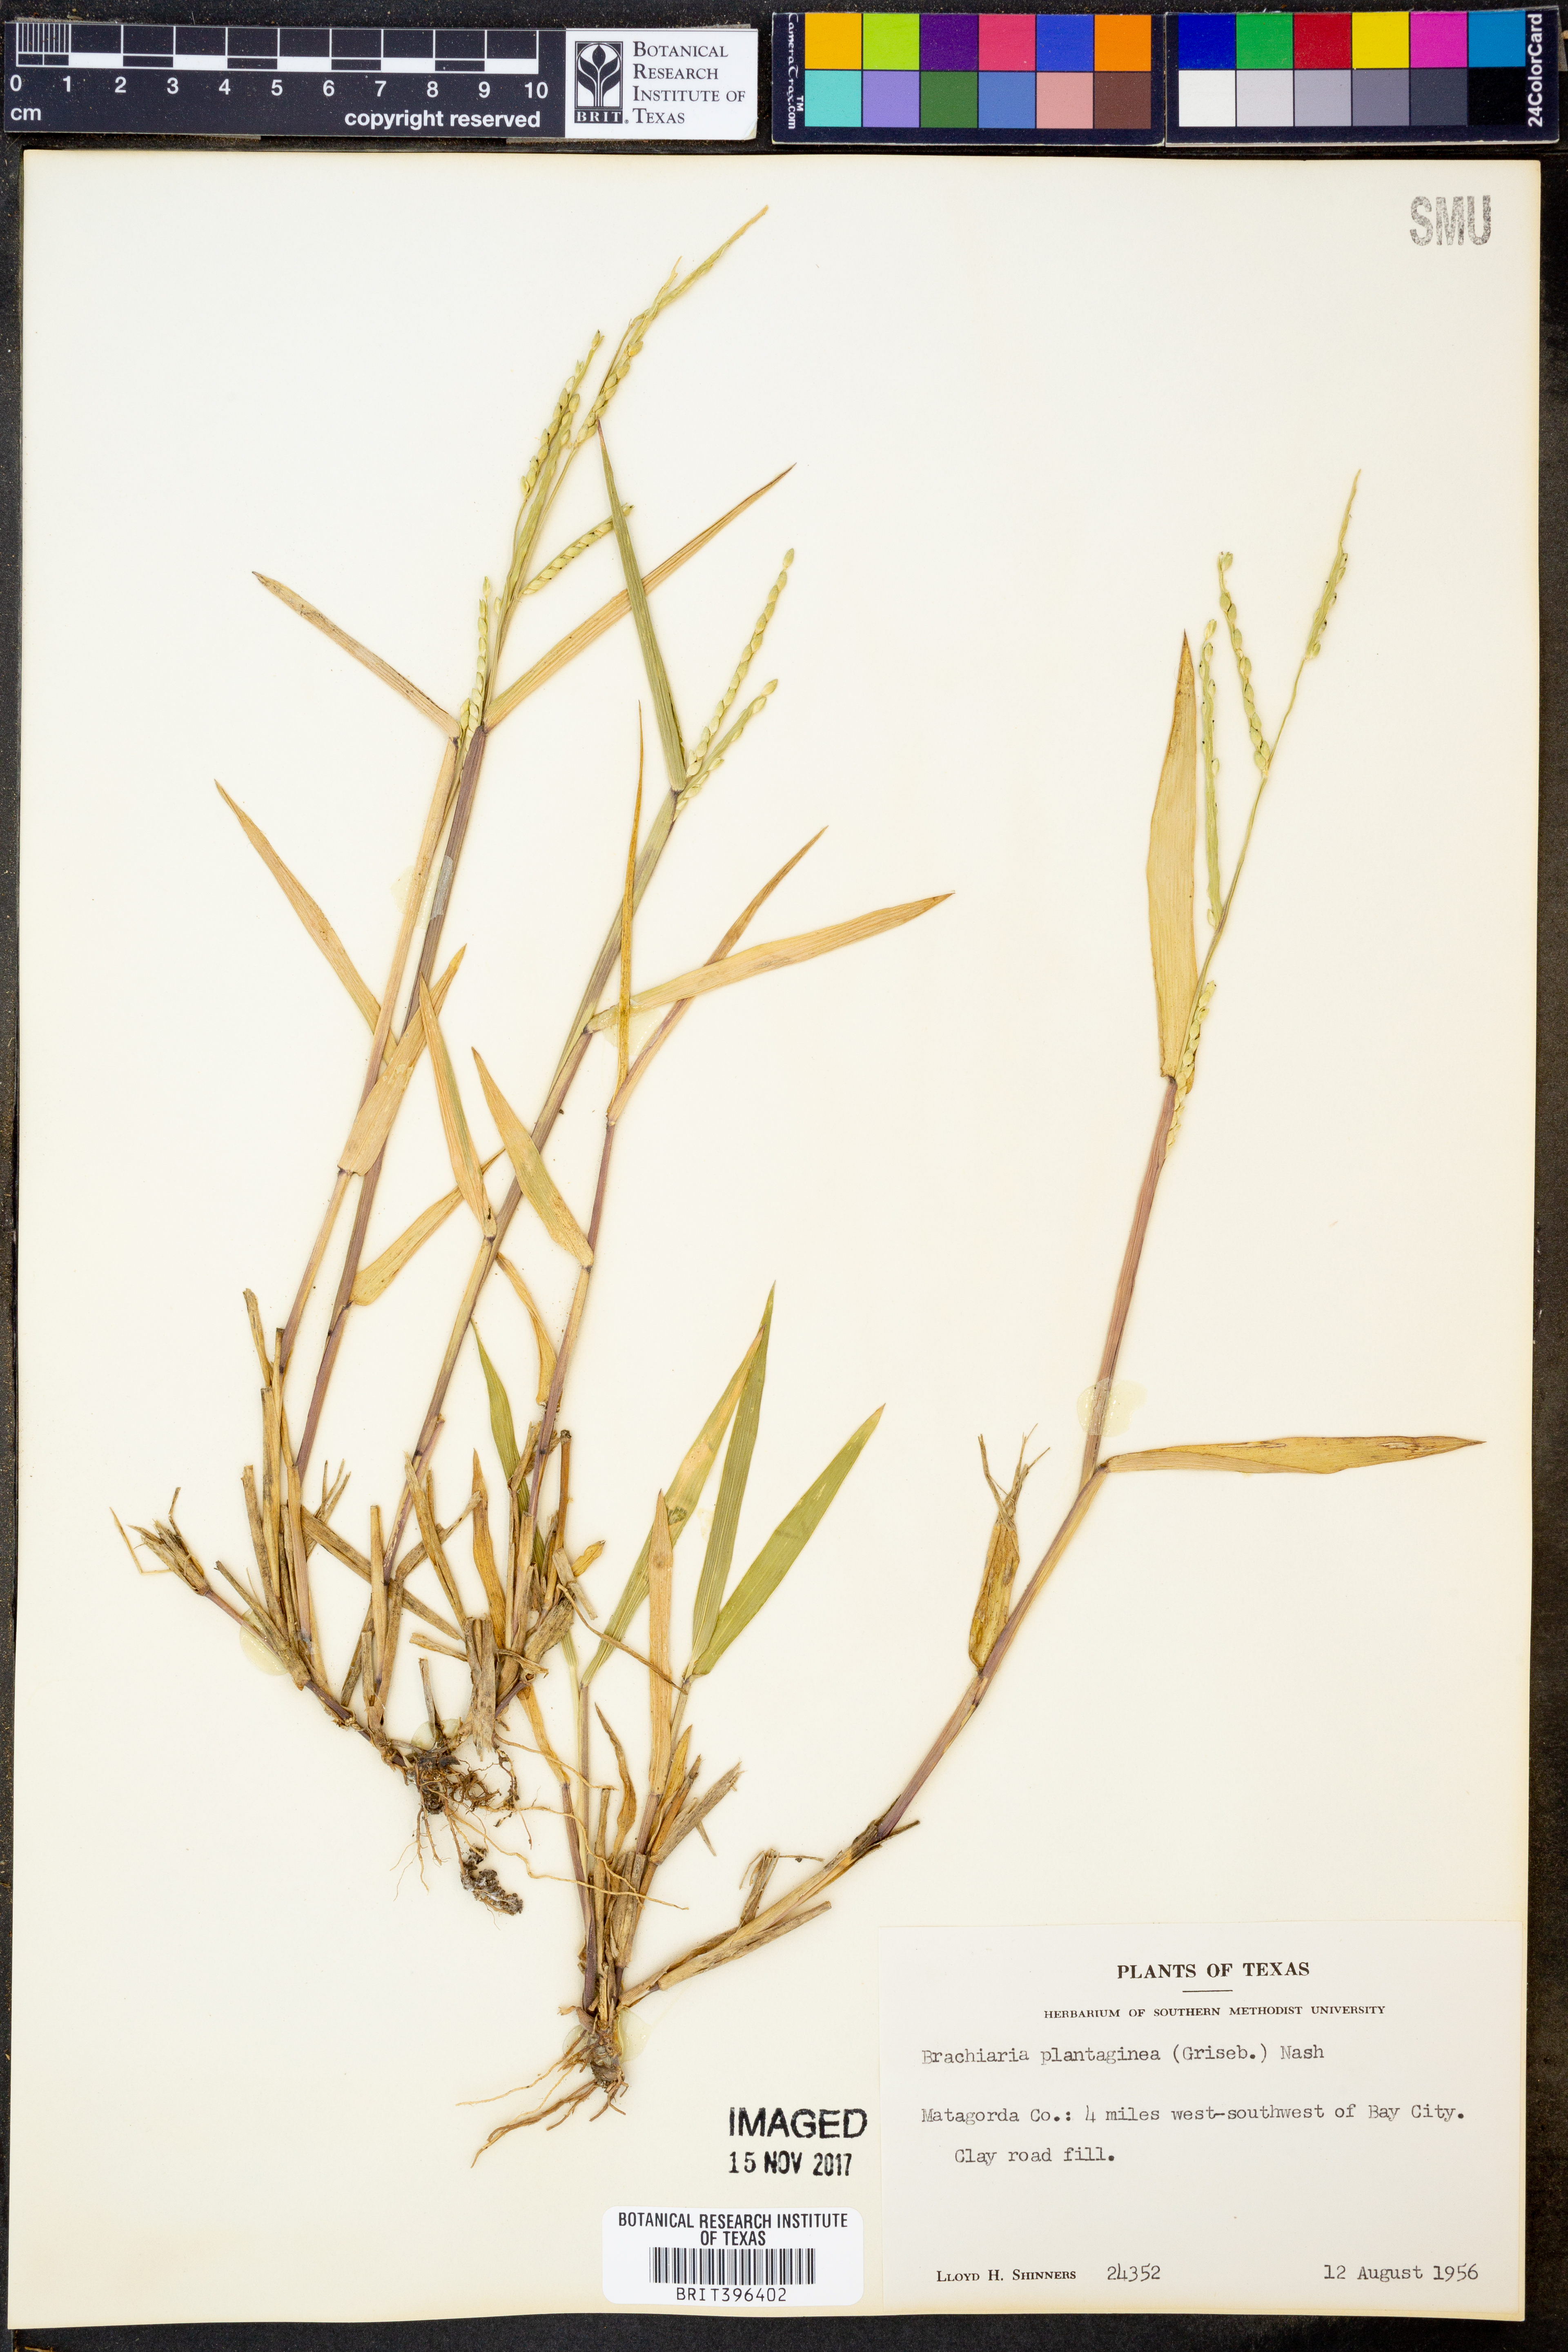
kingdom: Plantae
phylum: Tracheophyta
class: Liliopsida
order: Poales
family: Poaceae
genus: Urochloa
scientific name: Urochloa plantaginea
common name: Plantain signalgrass
